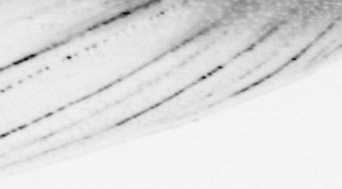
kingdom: Animalia
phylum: Chordata
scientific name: Chordata
